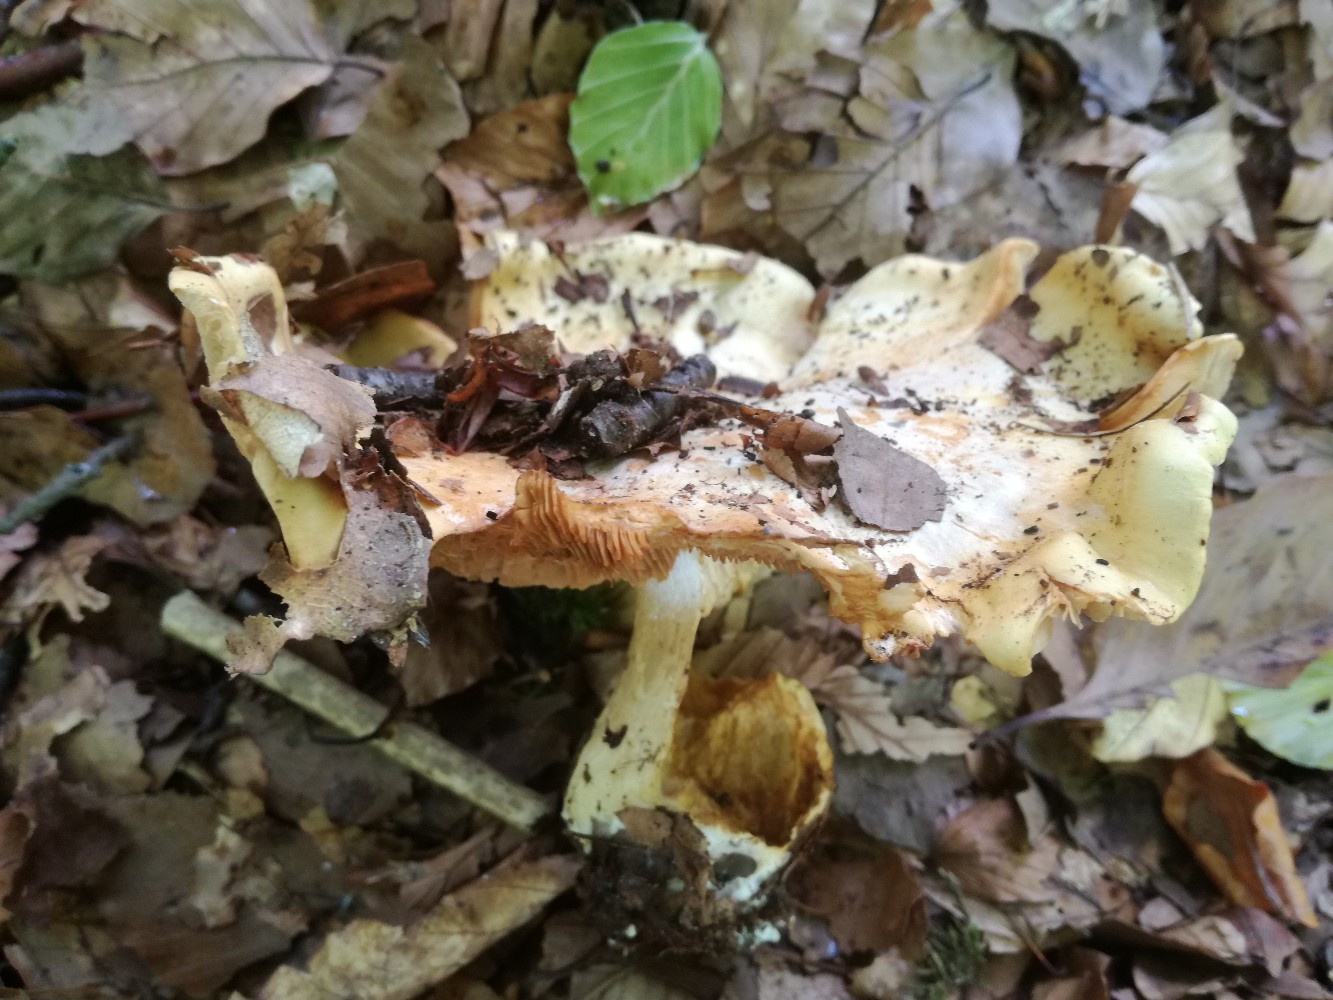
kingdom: Fungi
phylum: Basidiomycota
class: Agaricomycetes
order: Agaricales
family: Cortinariaceae
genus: Phlegmacium
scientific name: Phlegmacium xantho-ochraceum
